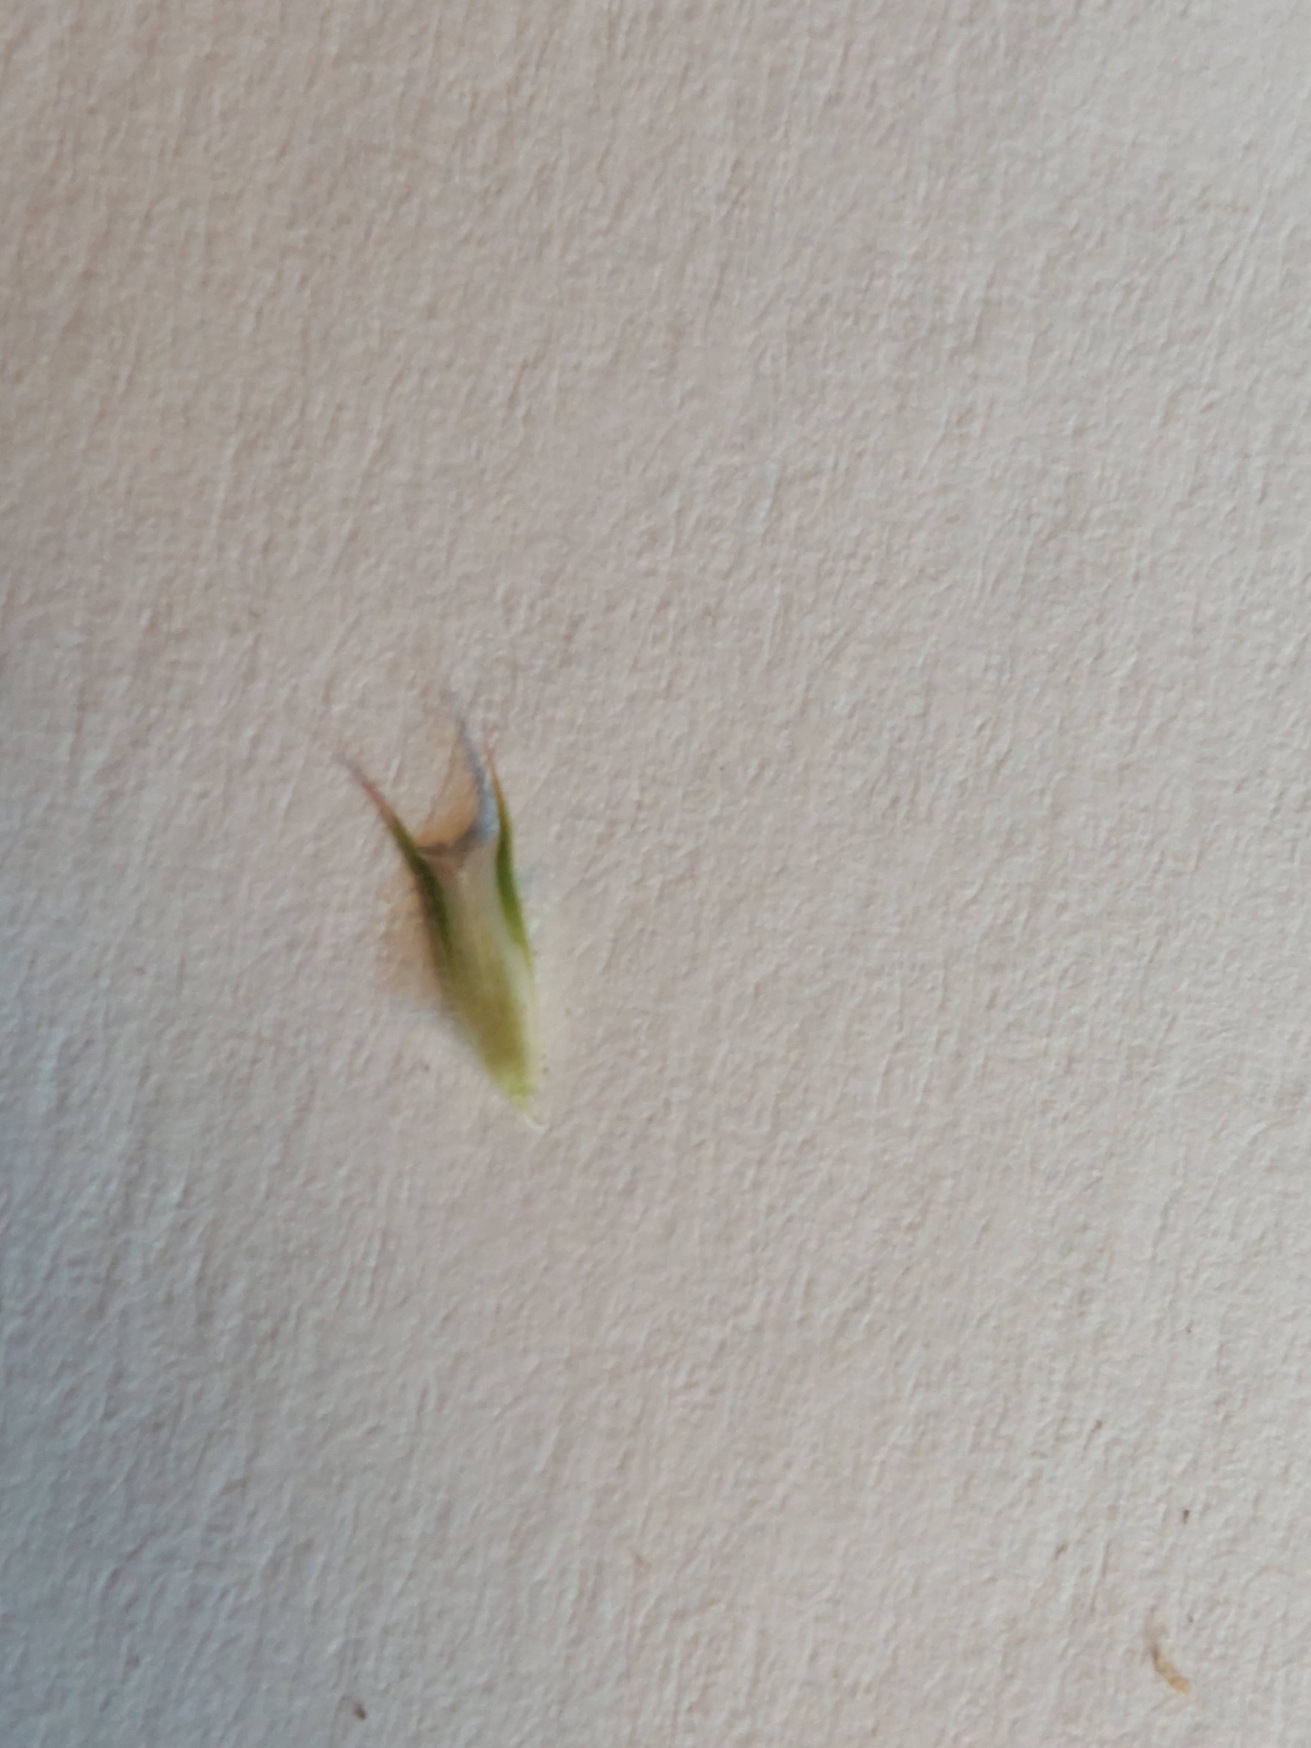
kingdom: Plantae
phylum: Tracheophyta
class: Liliopsida
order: Poales
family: Poaceae
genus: Phleum
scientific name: Phleum pratense
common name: Eng-rottehale
